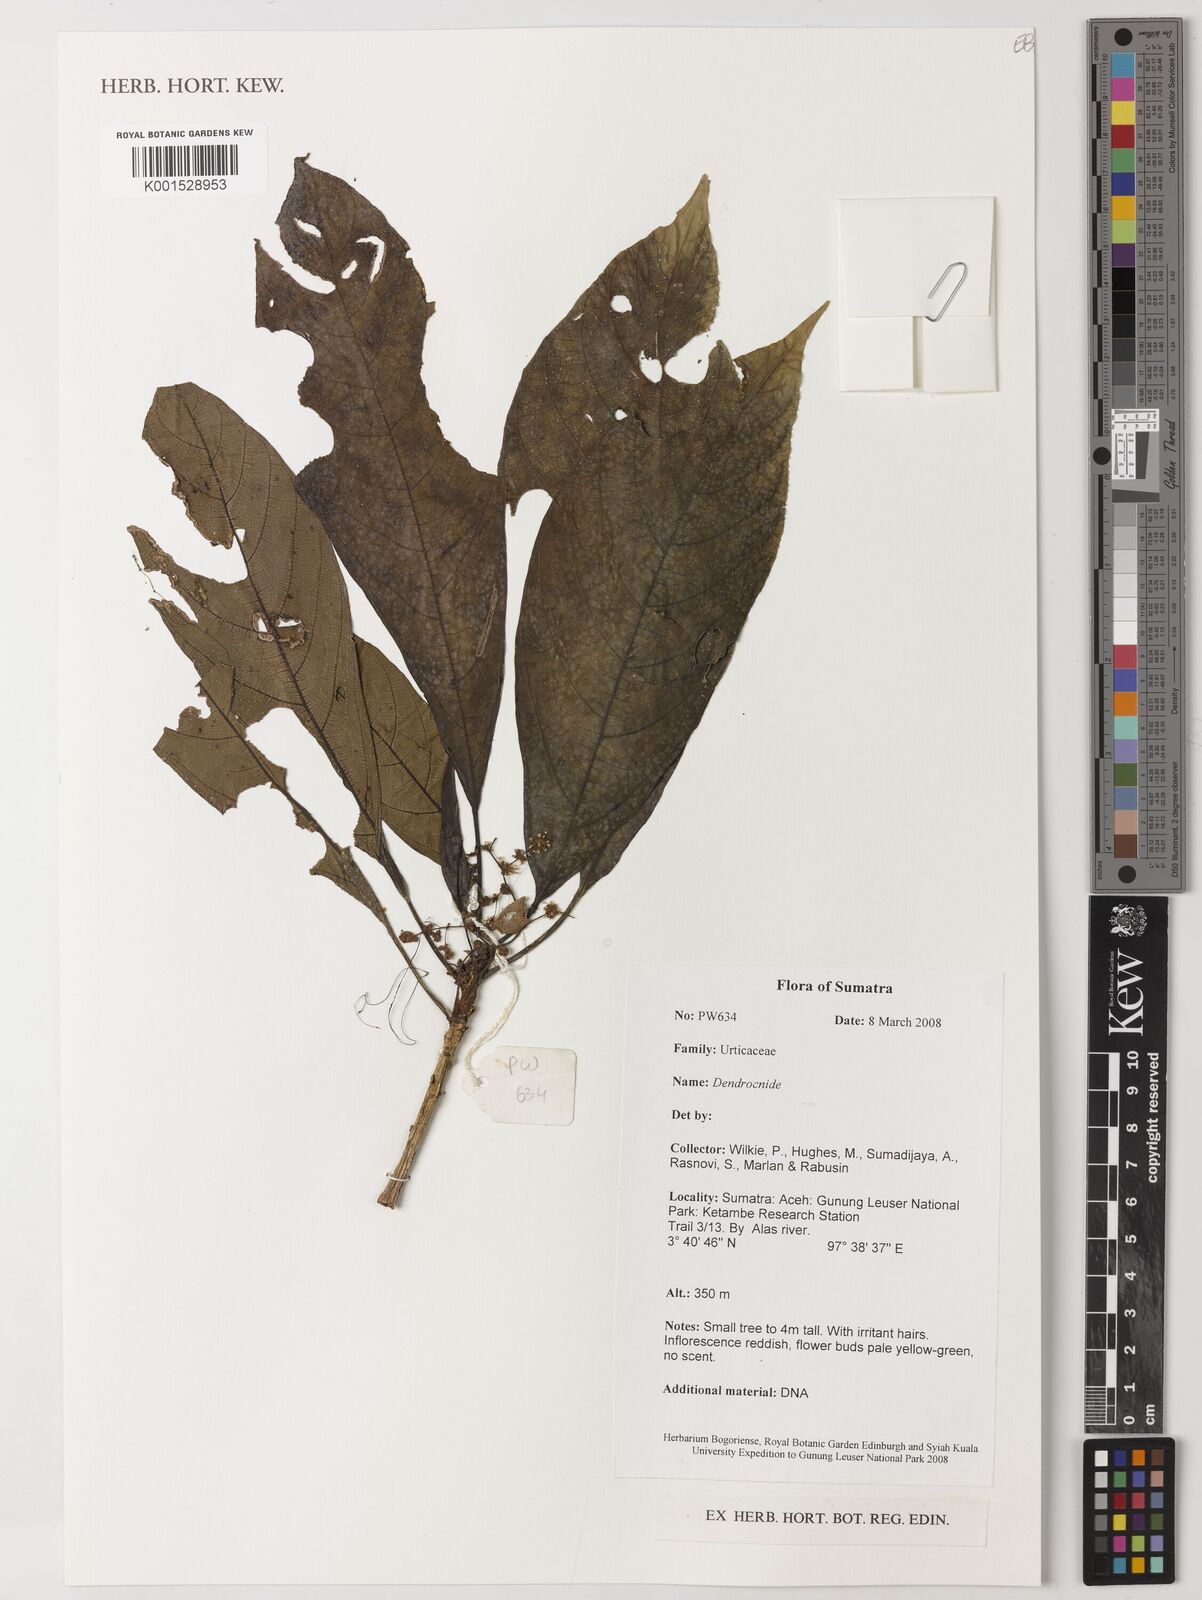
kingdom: Plantae
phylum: Tracheophyta
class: Magnoliopsida
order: Rosales
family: Urticaceae
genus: Dendrocnide
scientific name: Dendrocnide
